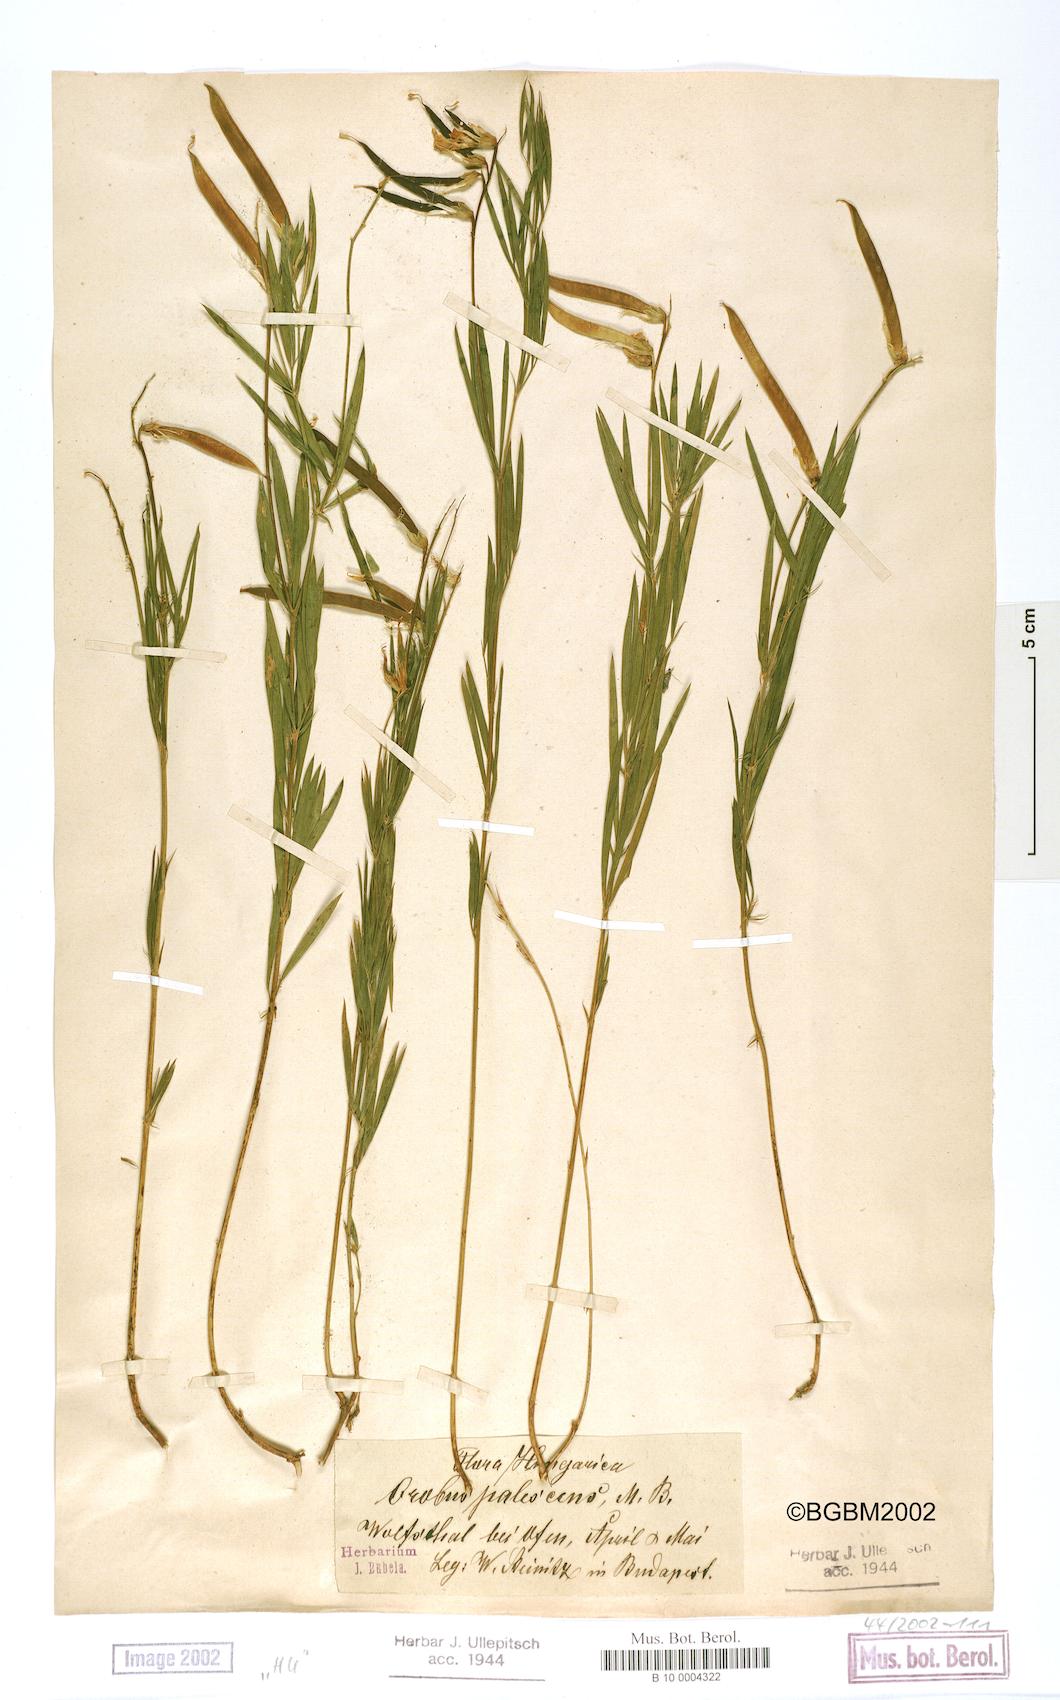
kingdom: Plantae
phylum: Tracheophyta
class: Magnoliopsida
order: Fabales
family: Fabaceae
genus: Lathyrus
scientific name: Lathyrus
